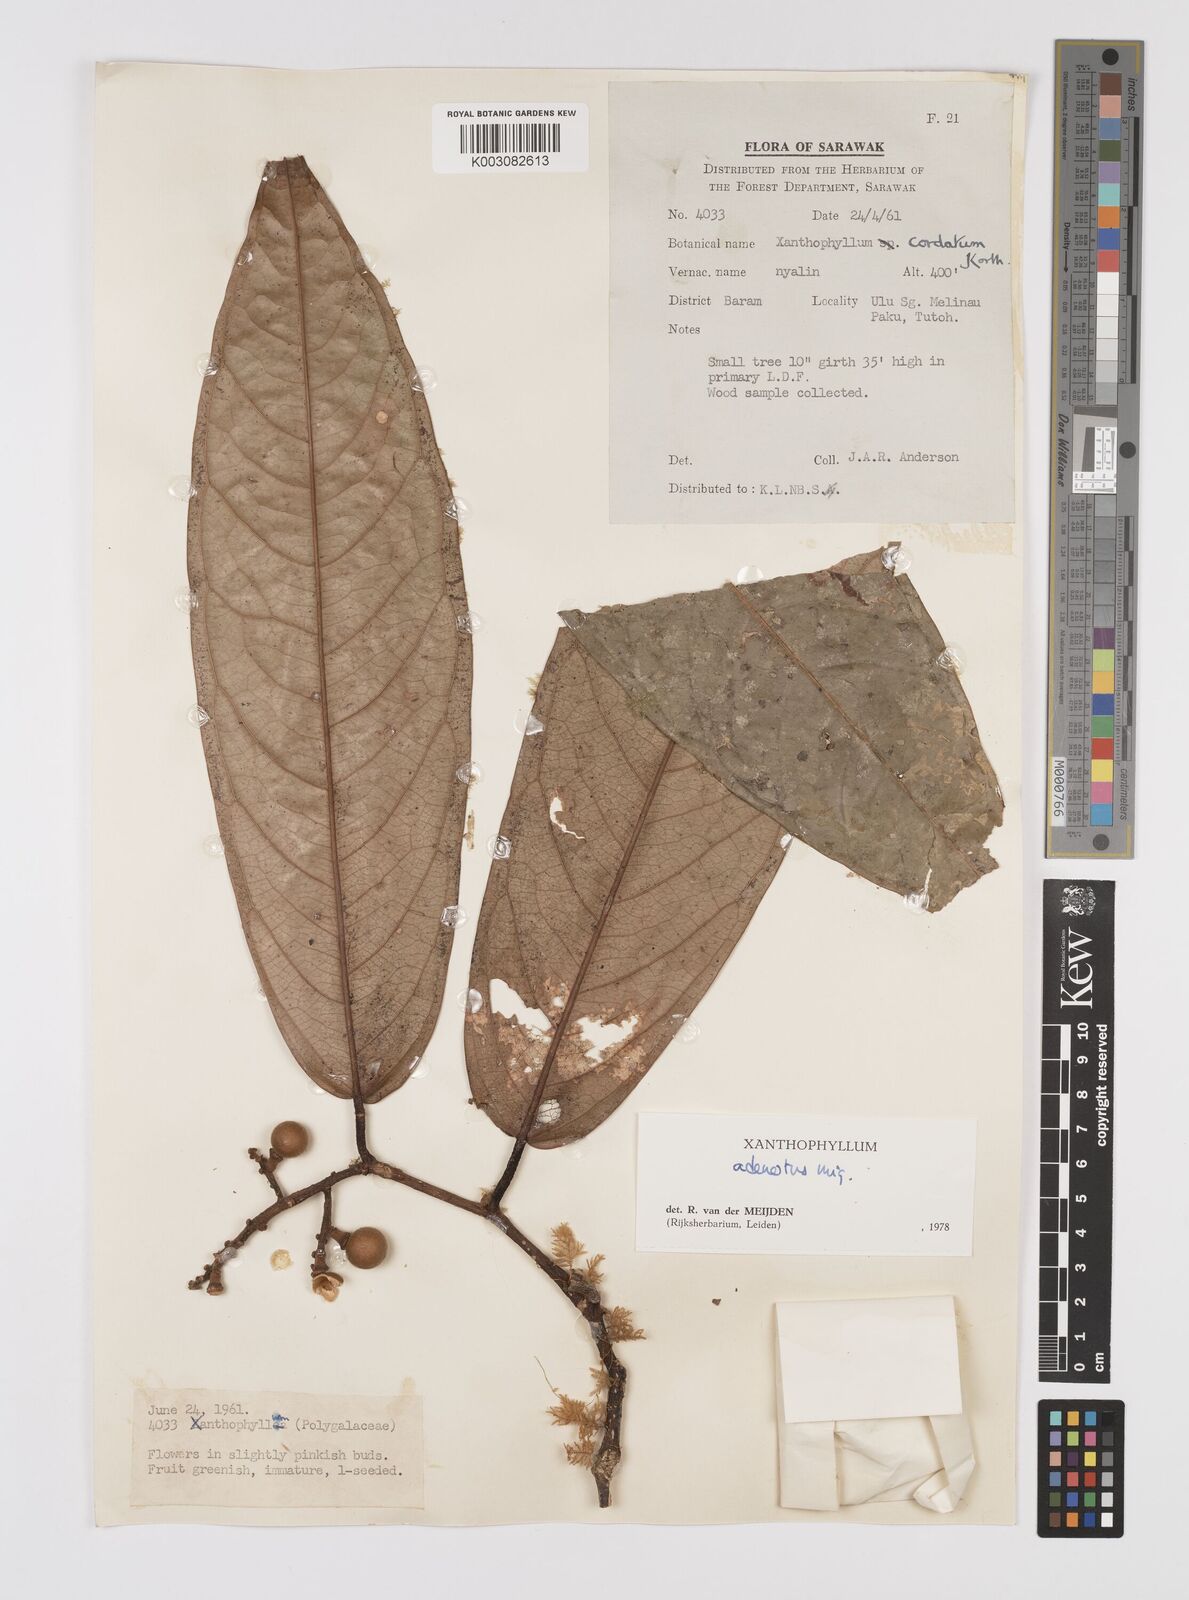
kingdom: Plantae
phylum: Tracheophyta
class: Magnoliopsida
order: Fabales
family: Polygalaceae
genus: Xanthophyllum
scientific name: Xanthophyllum adenotus
